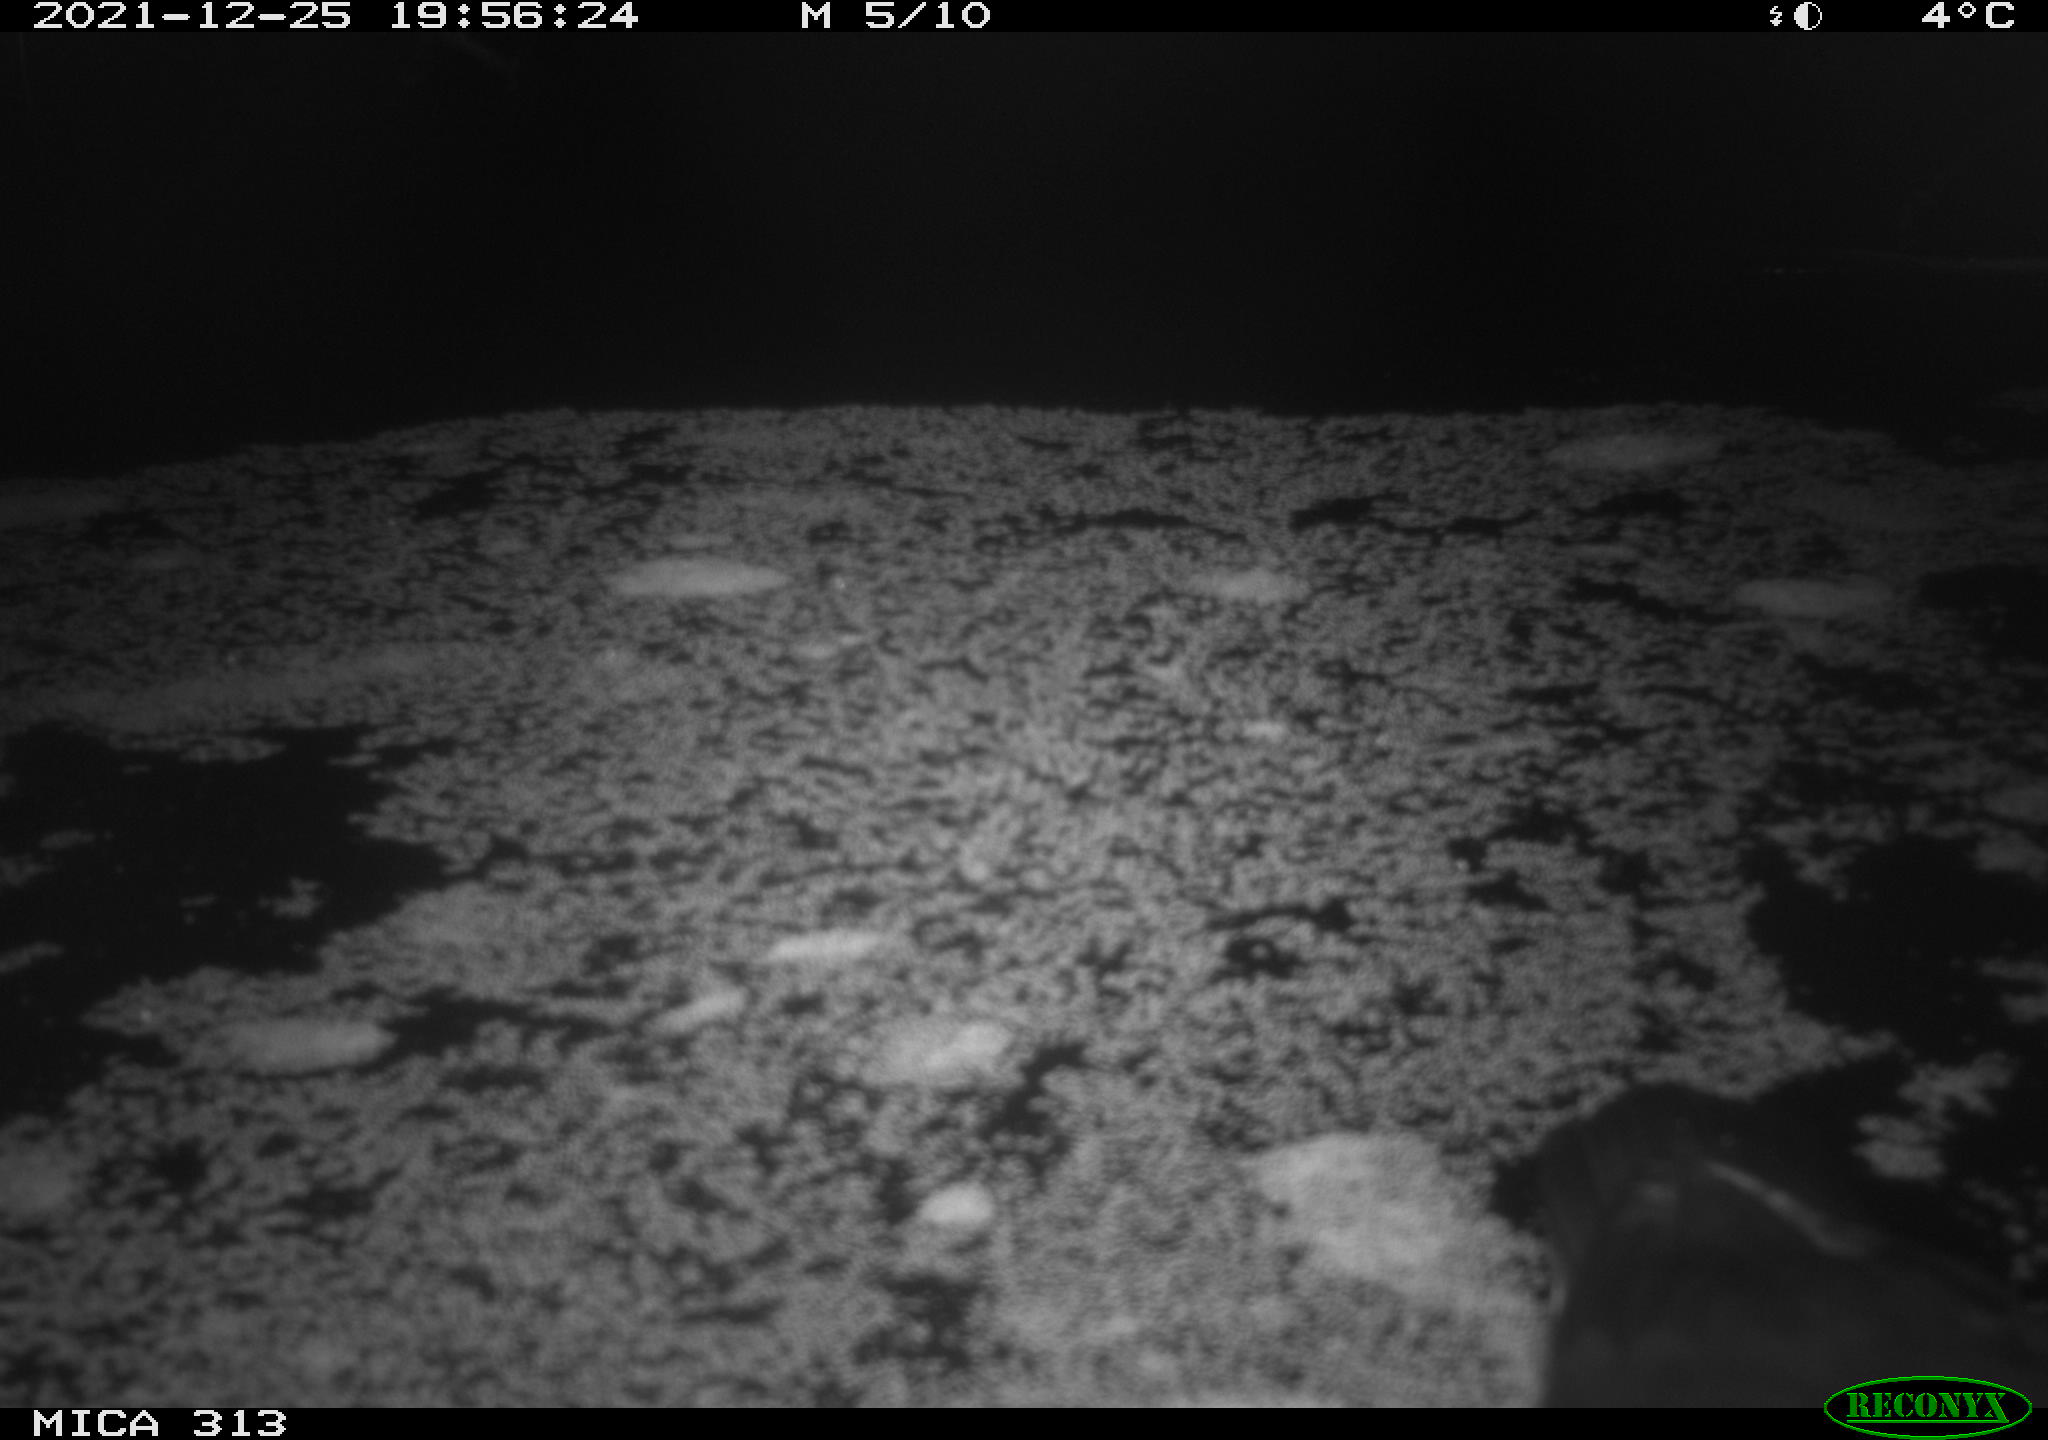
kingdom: Animalia
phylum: Chordata
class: Aves
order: Gruiformes
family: Rallidae
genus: Gallinula
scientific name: Gallinula chloropus
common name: Common moorhen
